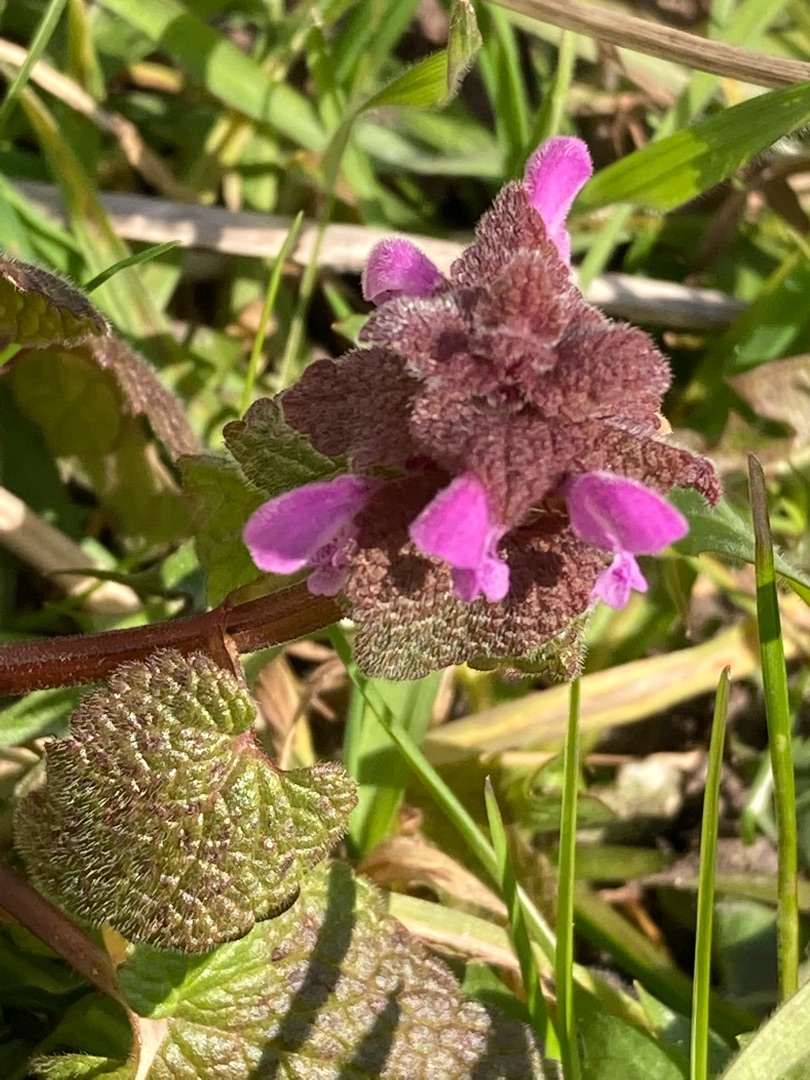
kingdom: Plantae
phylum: Tracheophyta
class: Magnoliopsida
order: Lamiales
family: Lamiaceae
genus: Lamium
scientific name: Lamium purpureum
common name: Rød tvetand
